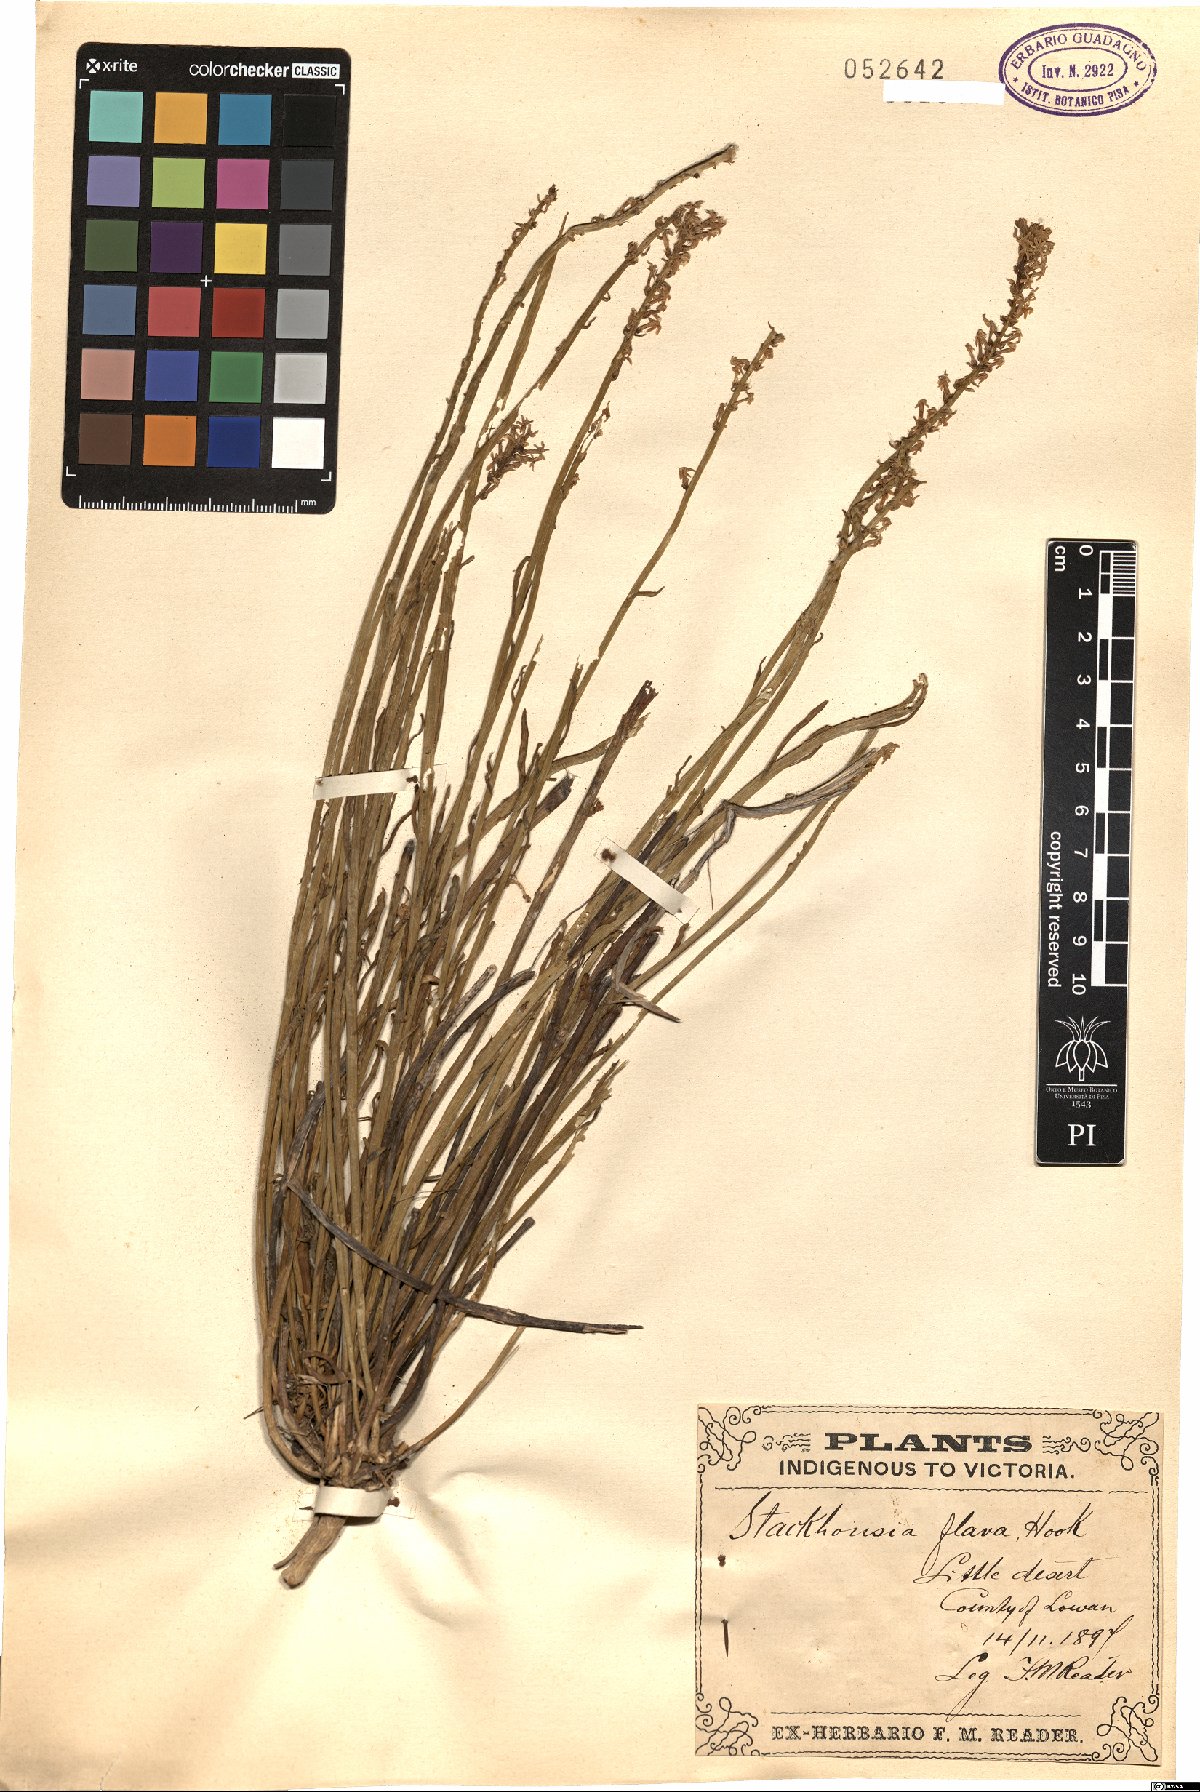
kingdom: Plantae
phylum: Tracheophyta
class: Magnoliopsida
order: Celastrales
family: Celastraceae
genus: Stackhousia
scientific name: Stackhousia viminea
